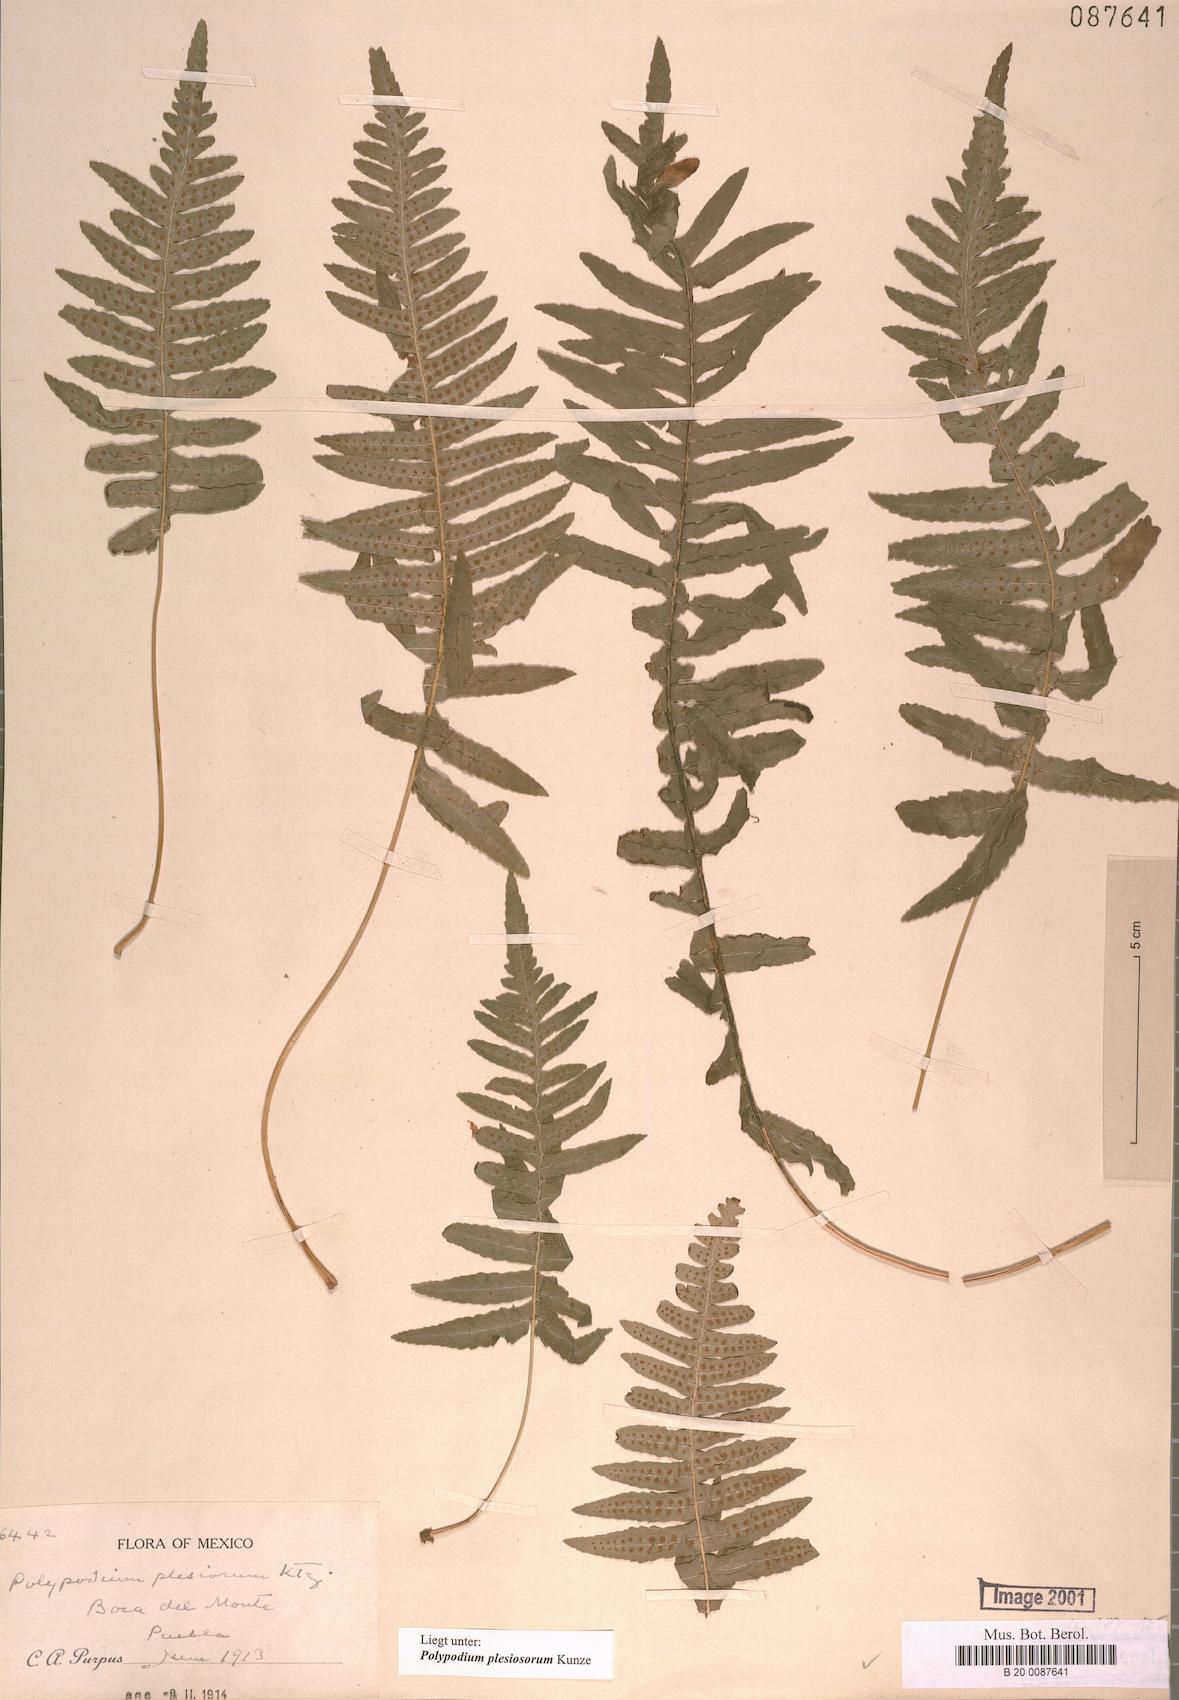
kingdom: Plantae
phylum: Tracheophyta
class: Polypodiopsida
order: Polypodiales
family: Polypodiaceae
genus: Polypodium
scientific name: Polypodium plesiosorum
